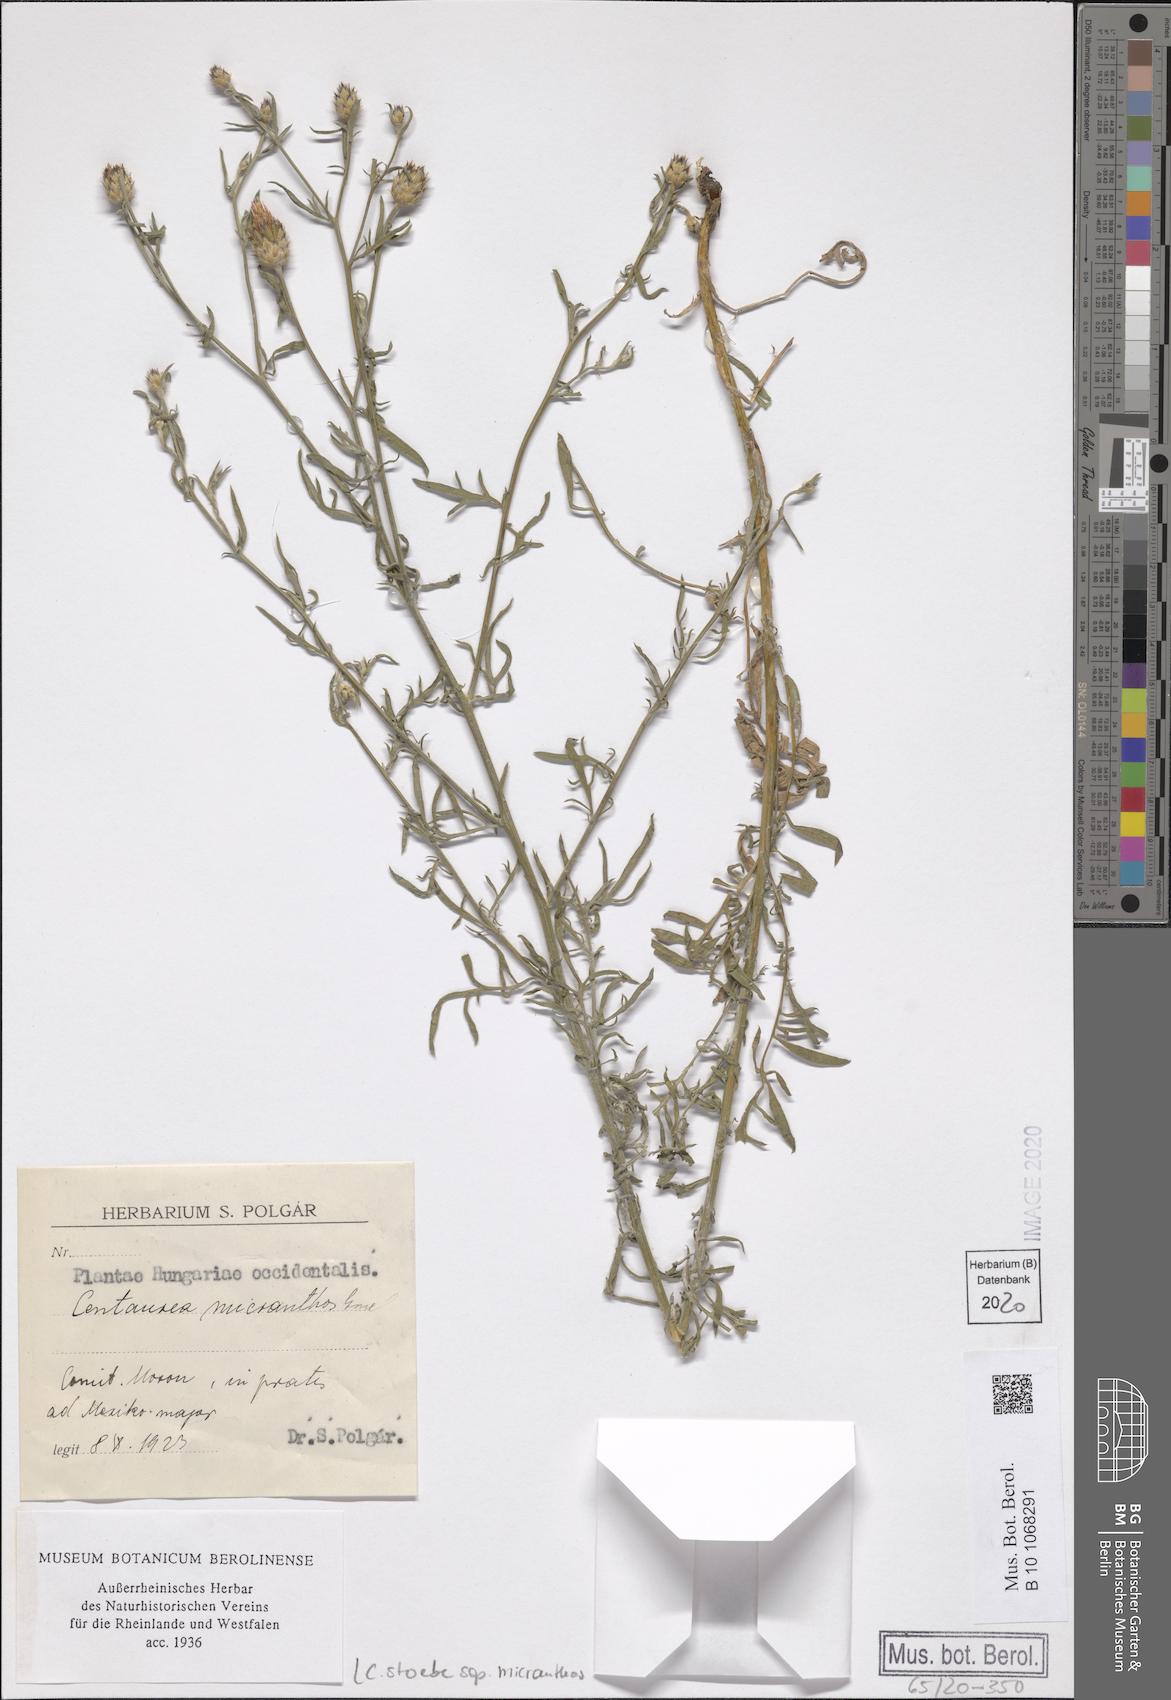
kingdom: Plantae
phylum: Tracheophyta
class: Magnoliopsida
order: Asterales
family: Asteraceae
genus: Centaurea
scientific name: Centaurea australis
